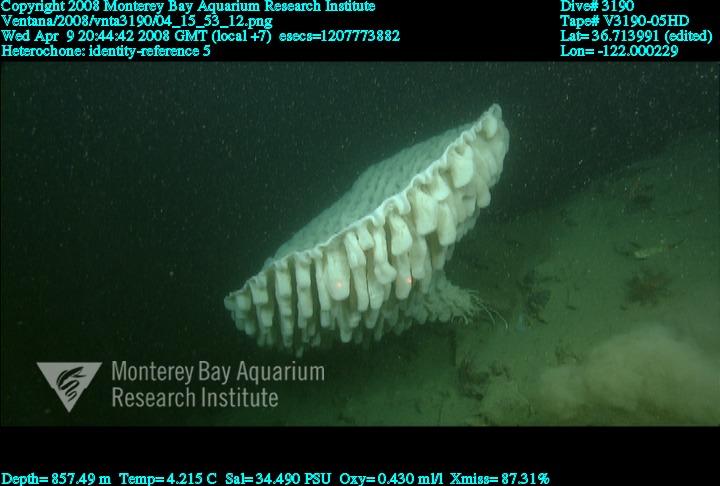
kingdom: Animalia
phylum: Porifera
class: Hexactinellida
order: Sceptrulophora
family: Aphrocallistidae
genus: Heterochone
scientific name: Heterochone
